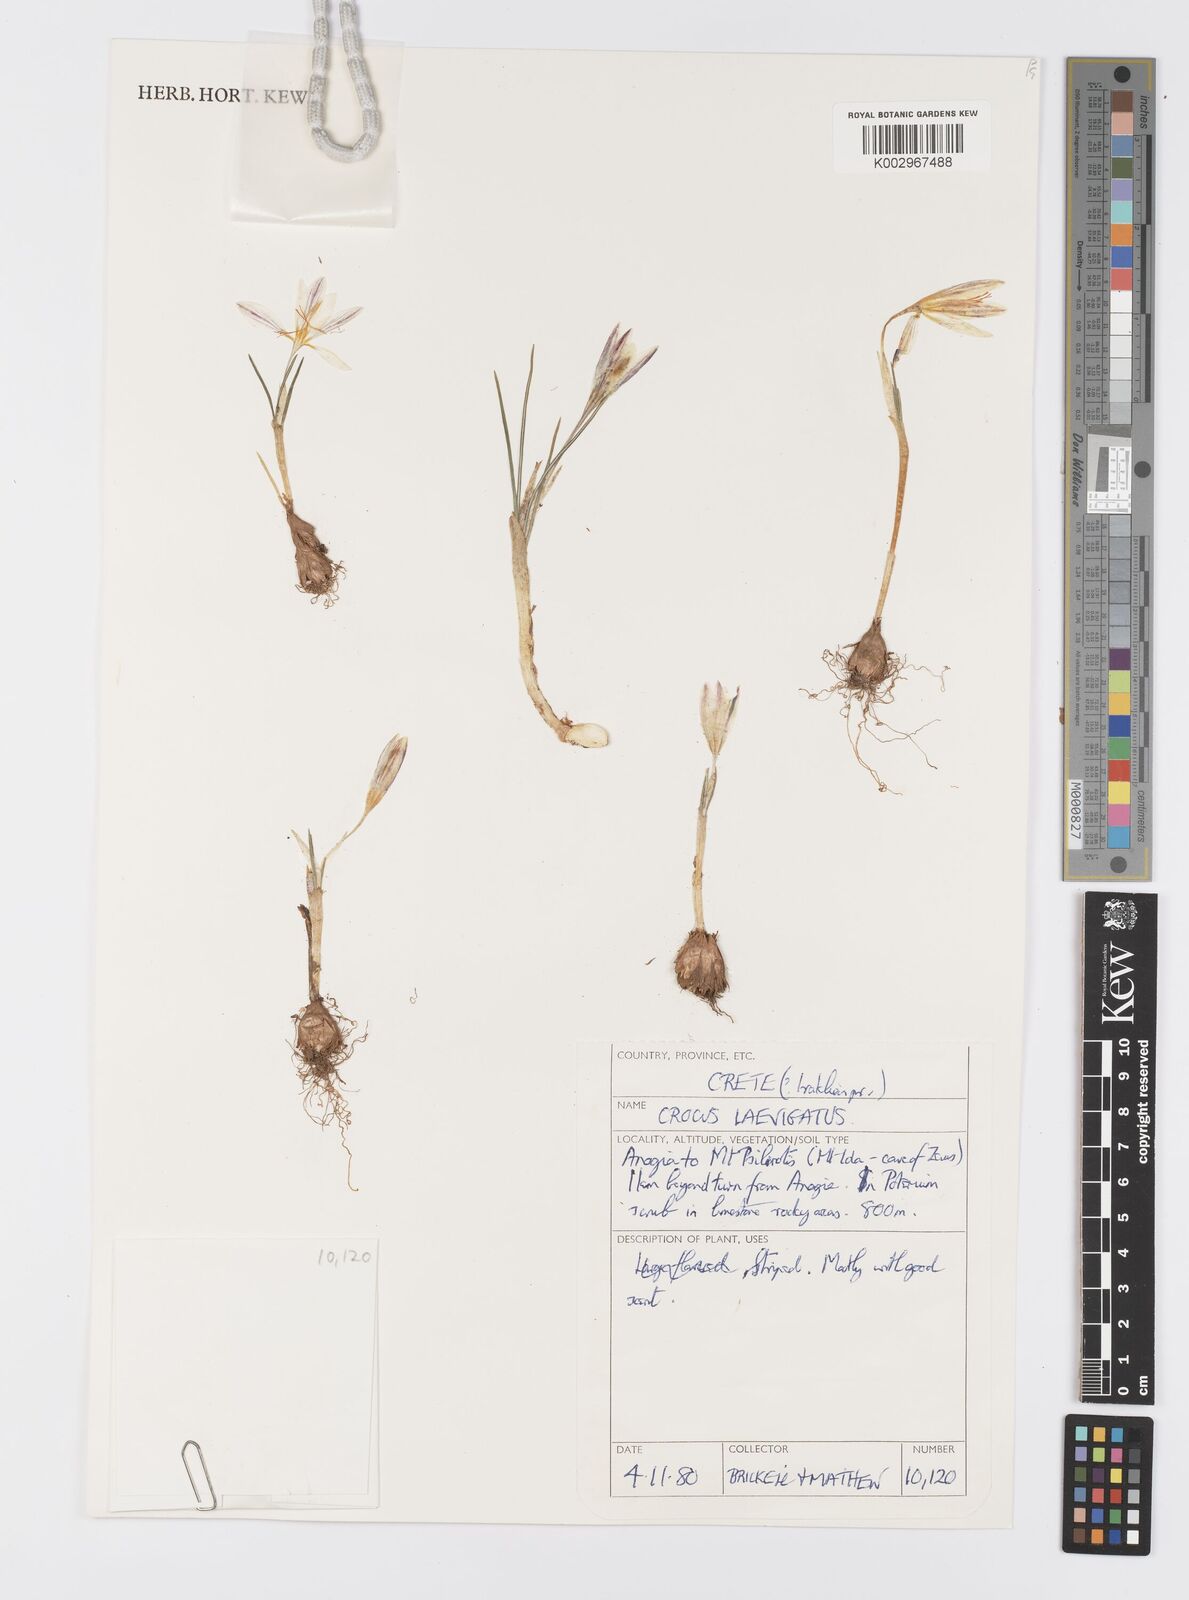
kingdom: Plantae
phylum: Tracheophyta
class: Liliopsida
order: Asparagales
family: Iridaceae
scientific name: Iridaceae
